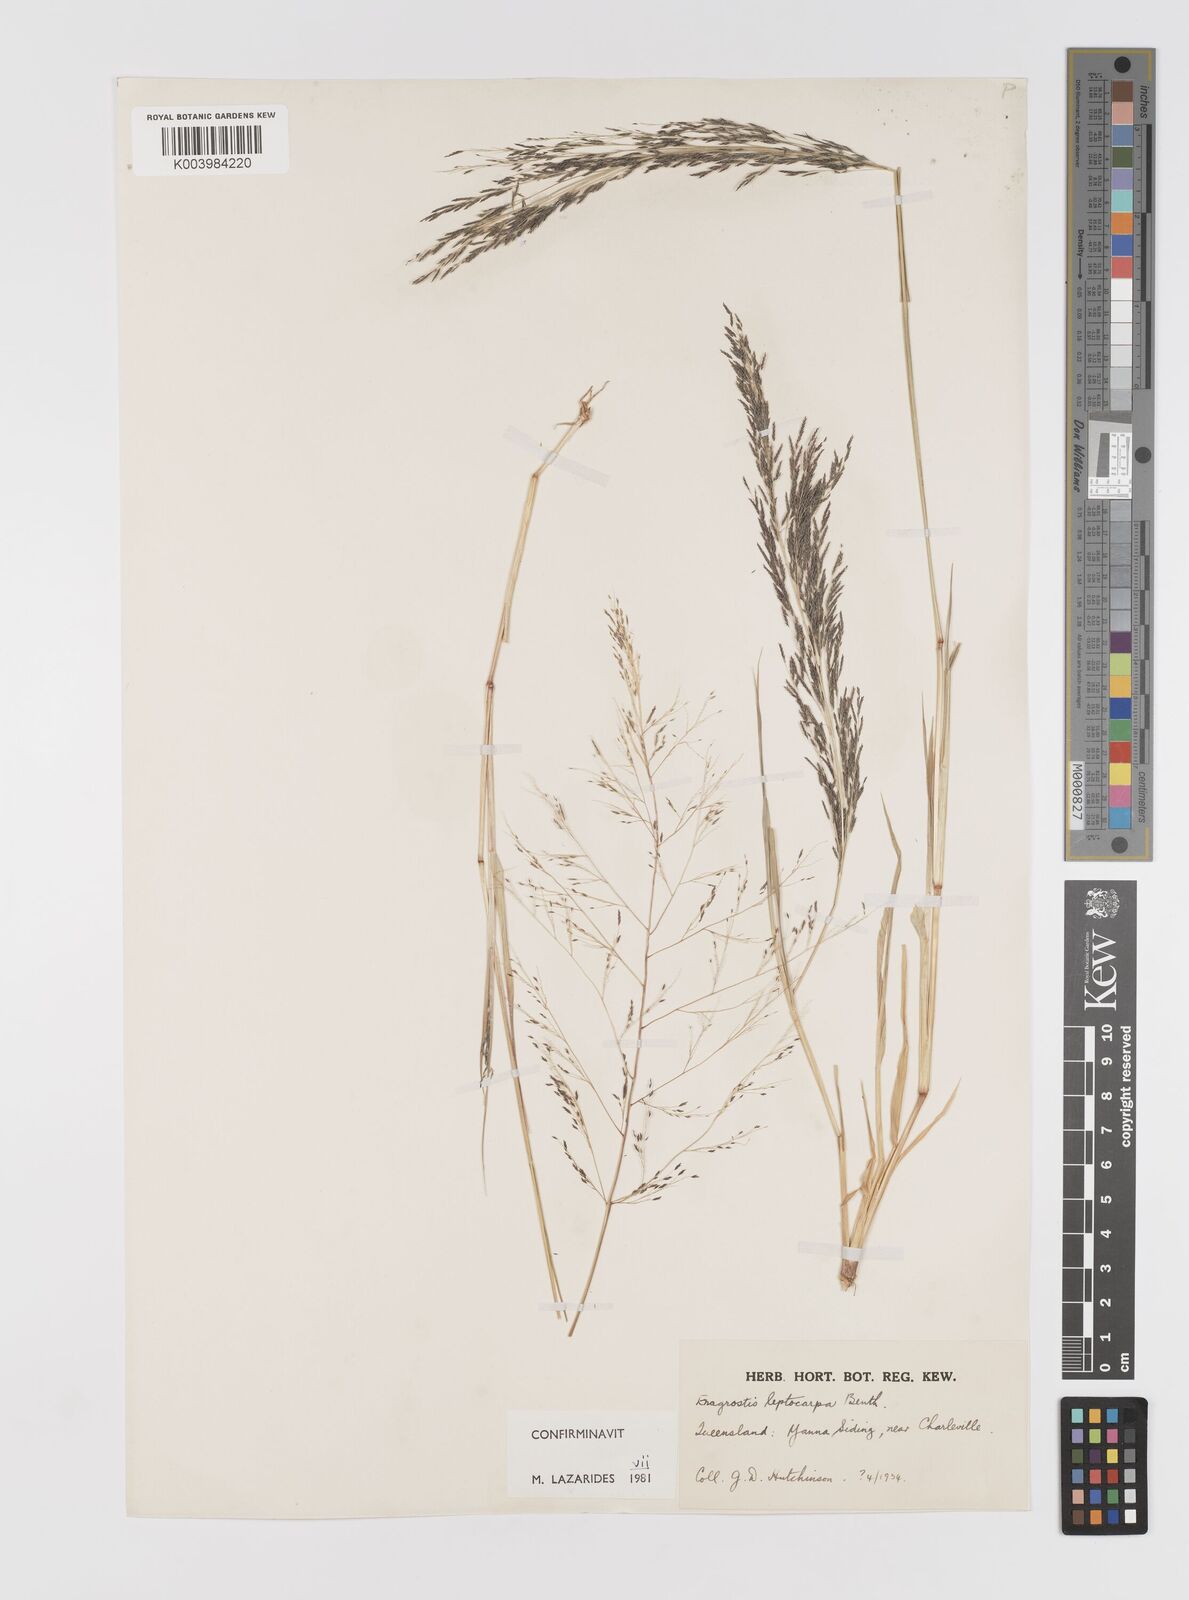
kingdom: Plantae
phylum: Tracheophyta
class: Liliopsida
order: Poales
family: Poaceae
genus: Eragrostis
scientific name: Eragrostis leptocarpa
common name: Drooping love grass
